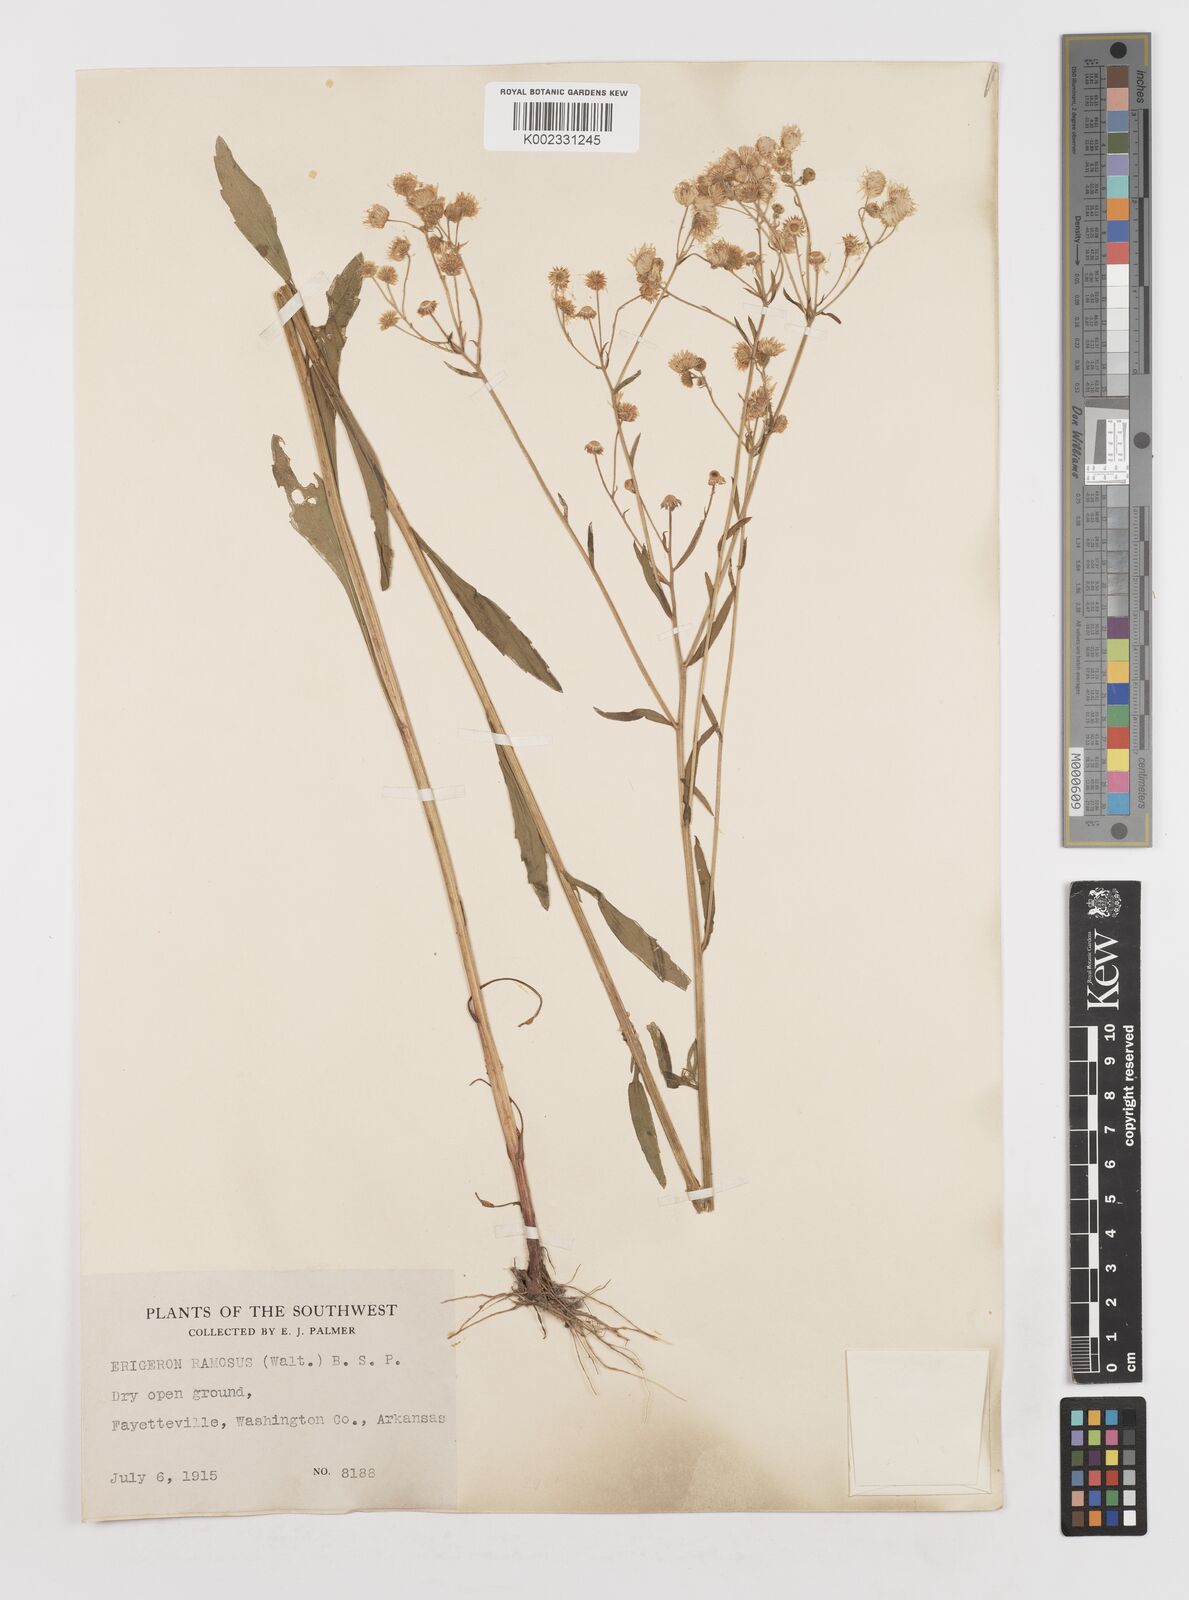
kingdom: Plantae
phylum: Tracheophyta
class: Magnoliopsida
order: Asterales
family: Asteraceae
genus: Erigeron
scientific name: Erigeron strigosus
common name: Common eastern fleabane
